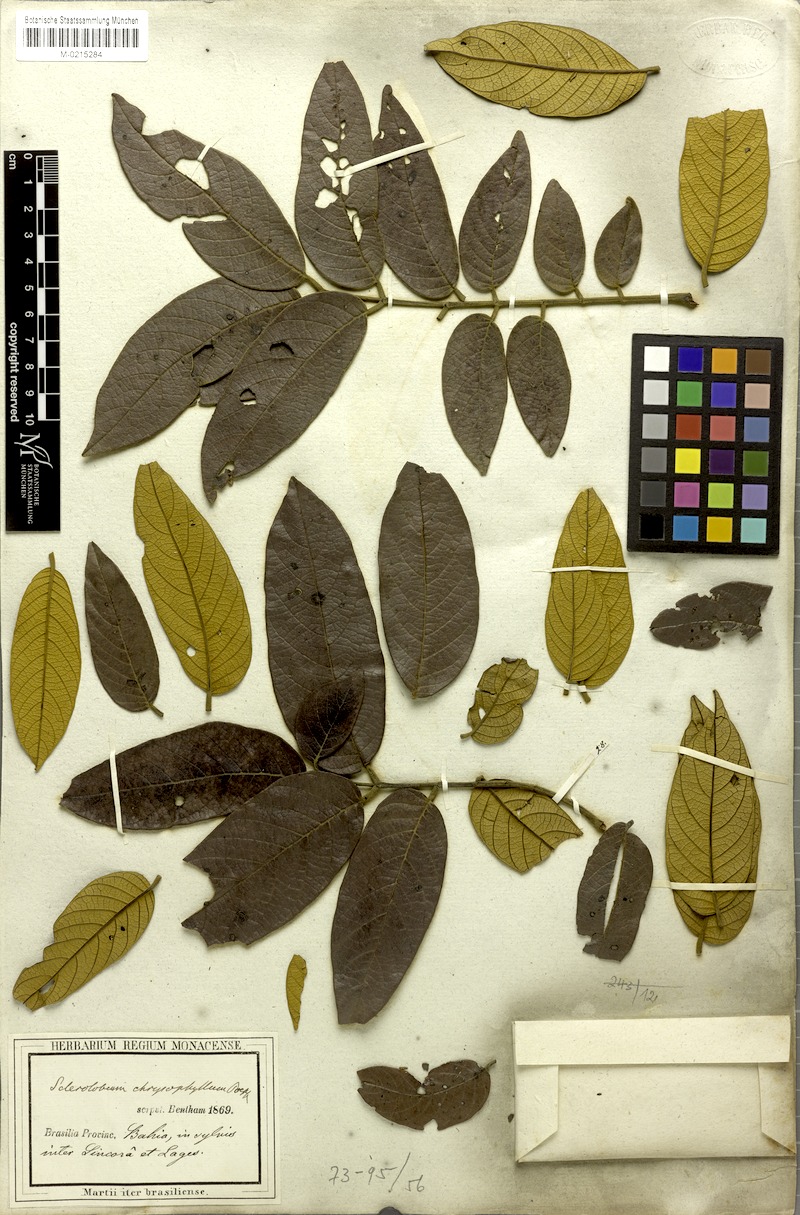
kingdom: Plantae
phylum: Tracheophyta
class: Magnoliopsida
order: Fabales
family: Fabaceae
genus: Tachigali
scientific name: Tachigali rugosa
